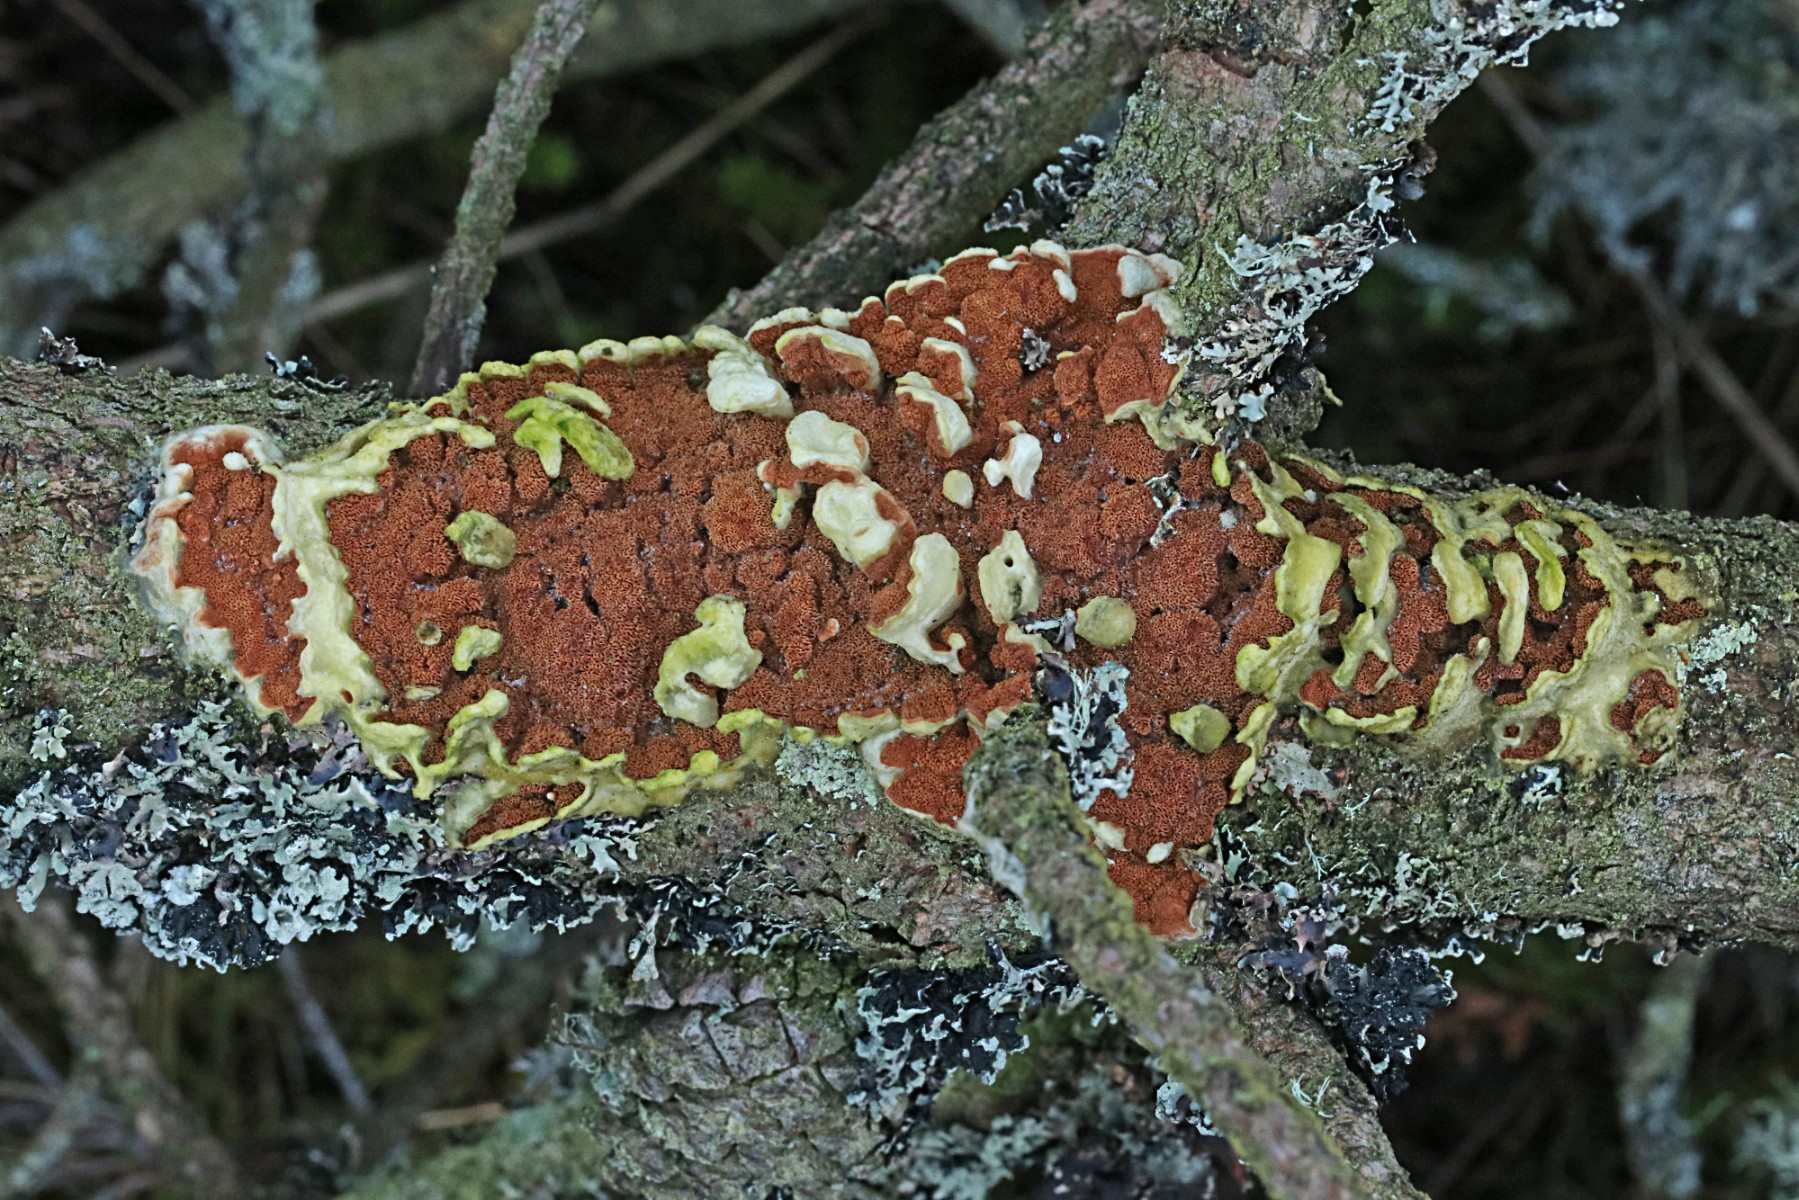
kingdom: Fungi
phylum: Basidiomycota
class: Agaricomycetes
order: Polyporales
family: Irpicaceae
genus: Meruliopsis
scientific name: Meruliopsis taxicola
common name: purpurbrun foldporesvamp
